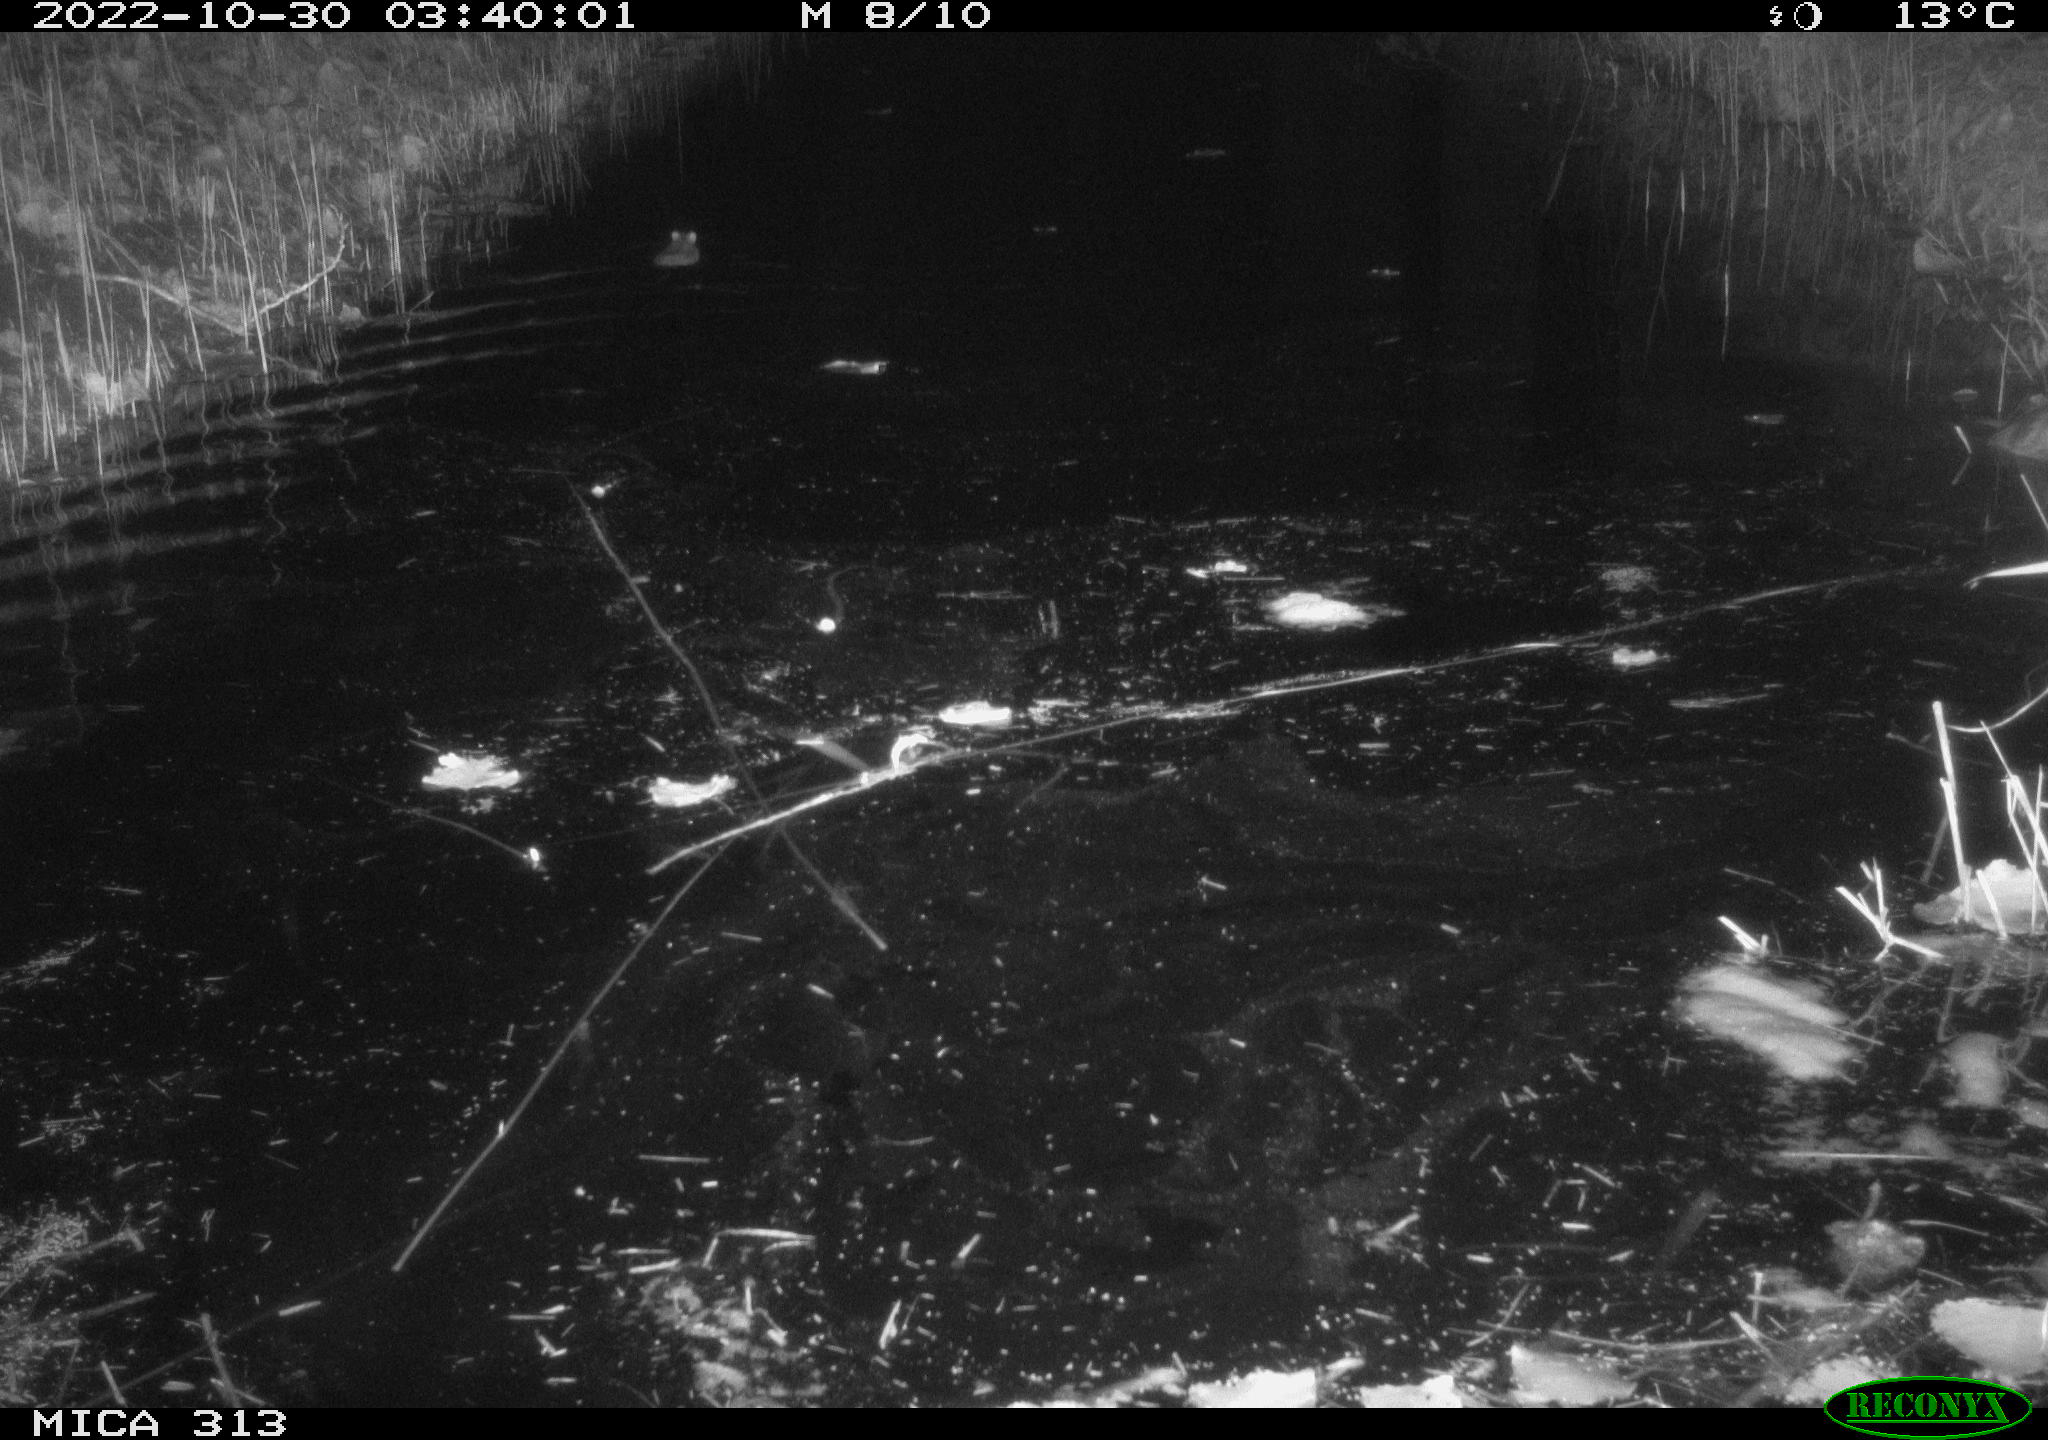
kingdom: Animalia
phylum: Chordata
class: Mammalia
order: Rodentia
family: Muridae
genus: Rattus
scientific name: Rattus norvegicus
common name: Brown rat
